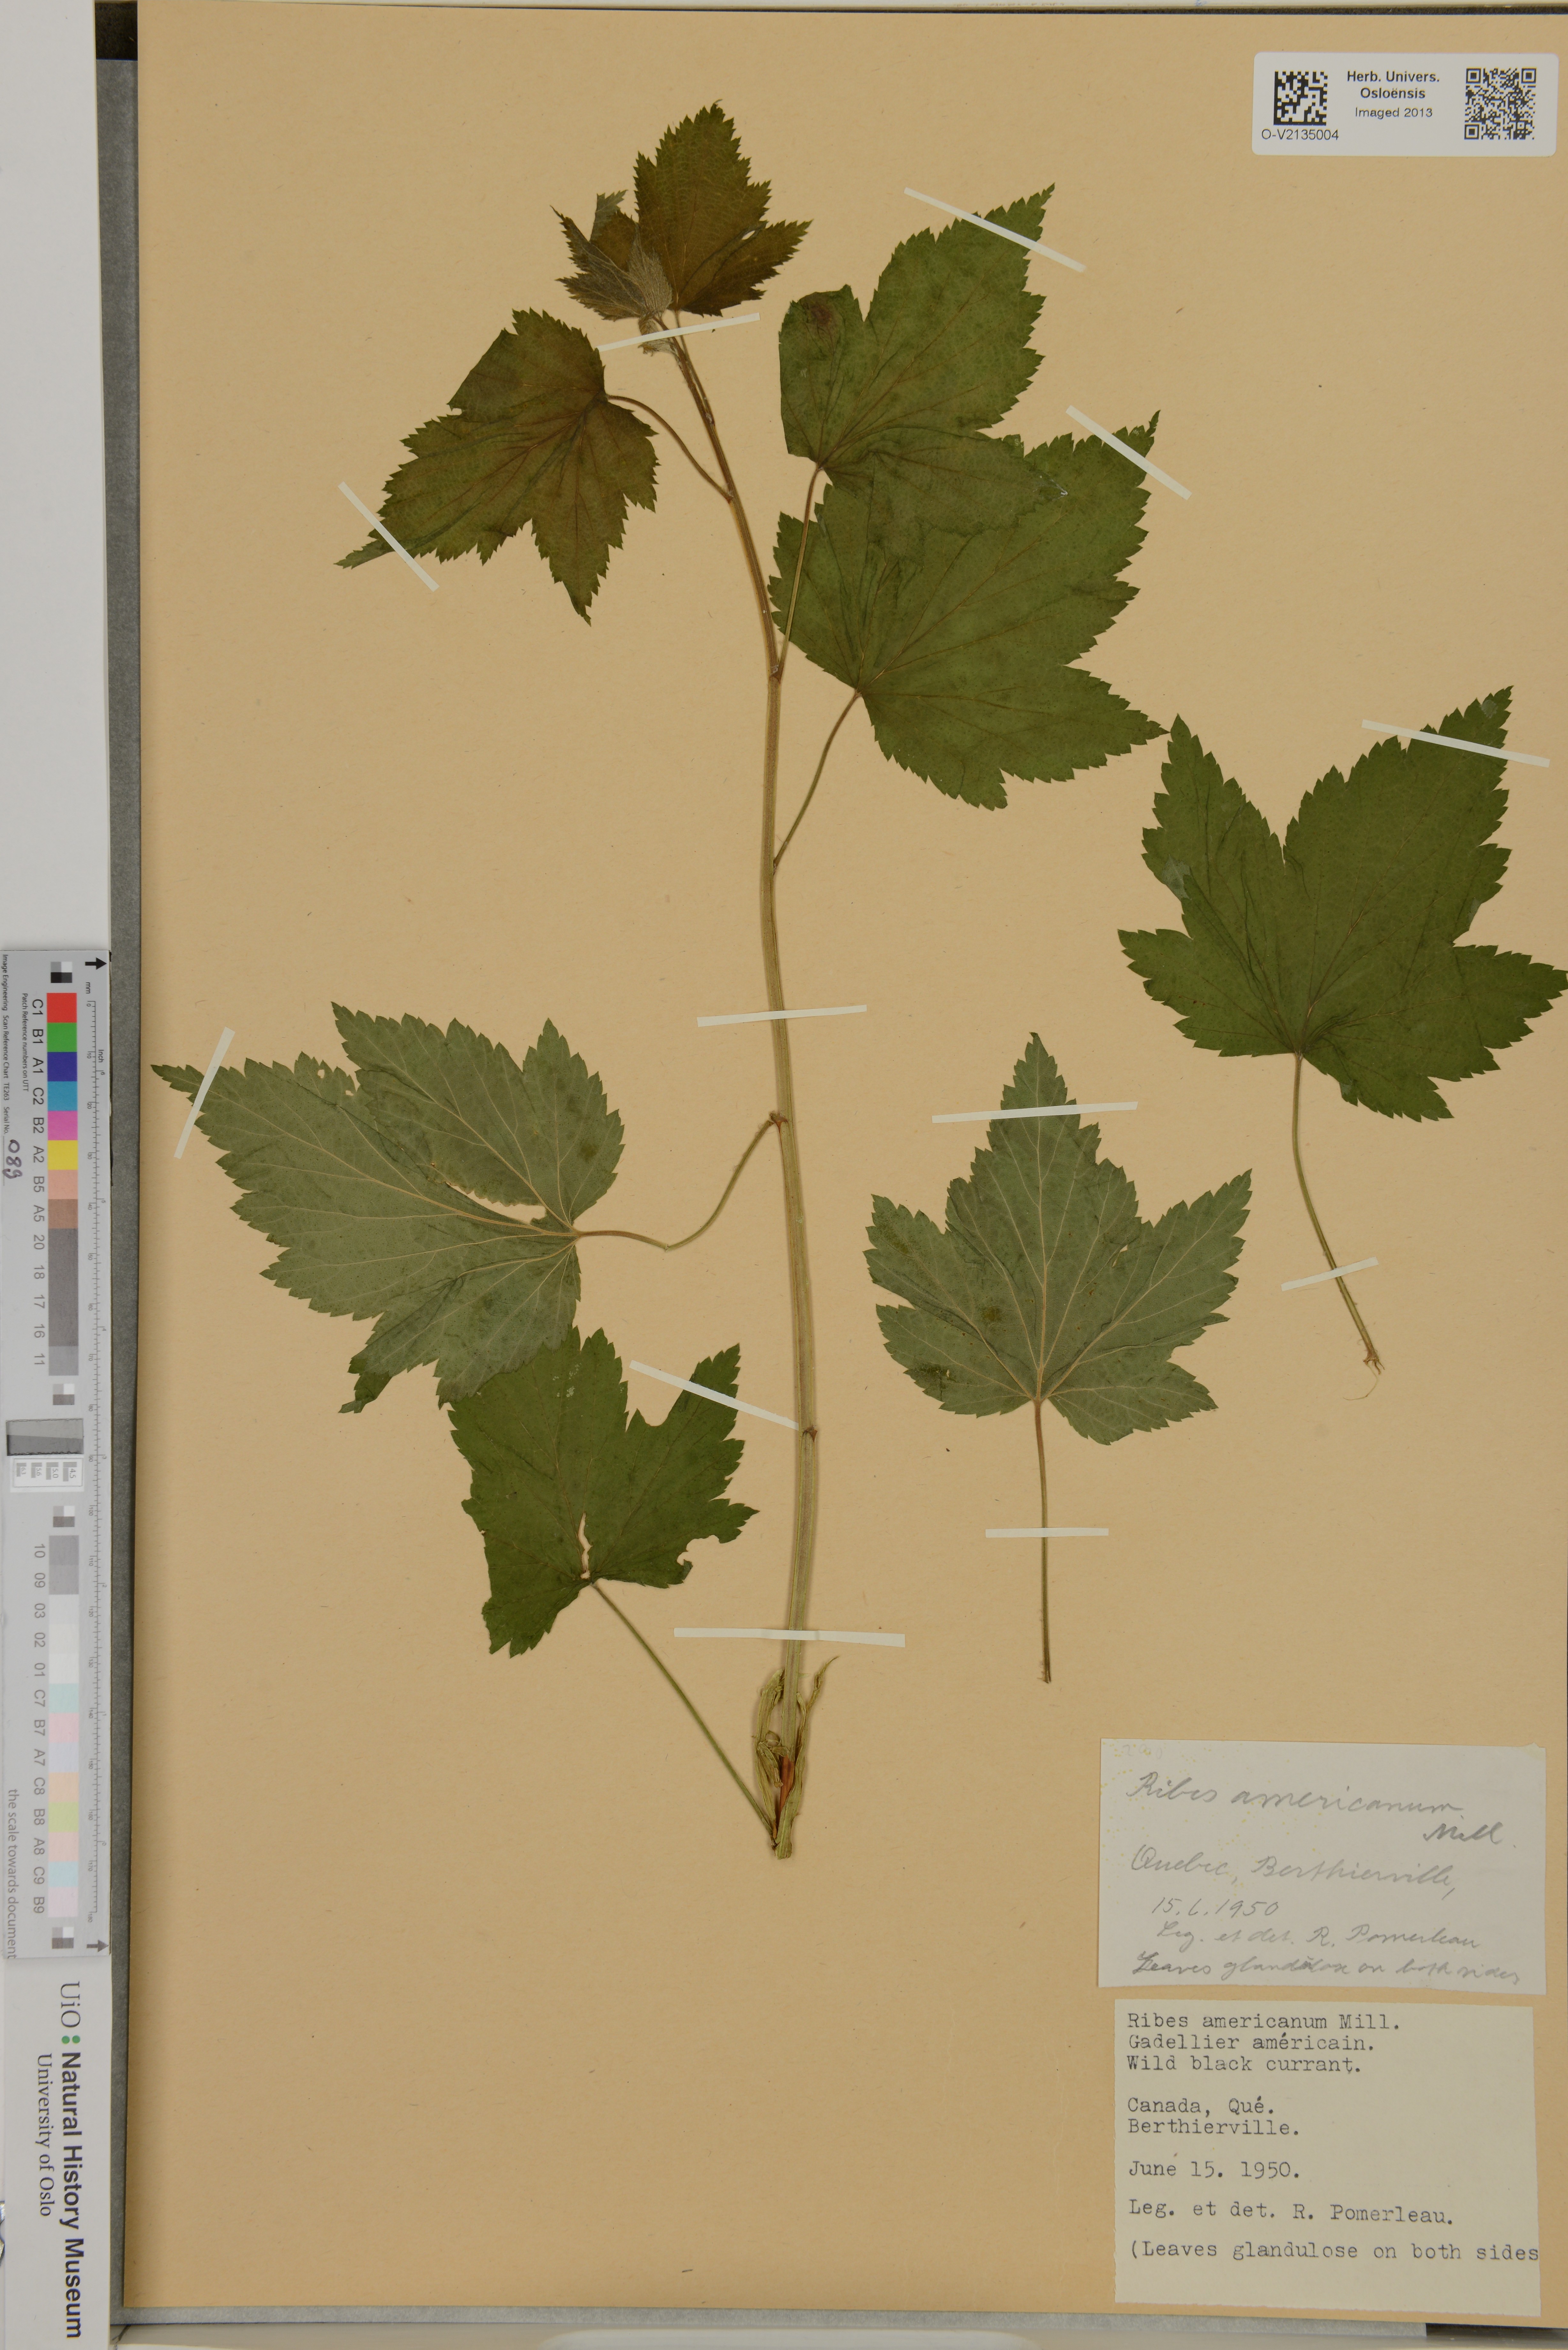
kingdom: Plantae
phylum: Tracheophyta
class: Magnoliopsida
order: Saxifragales
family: Grossulariaceae
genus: Ribes
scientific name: Ribes americanum
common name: American black currant
